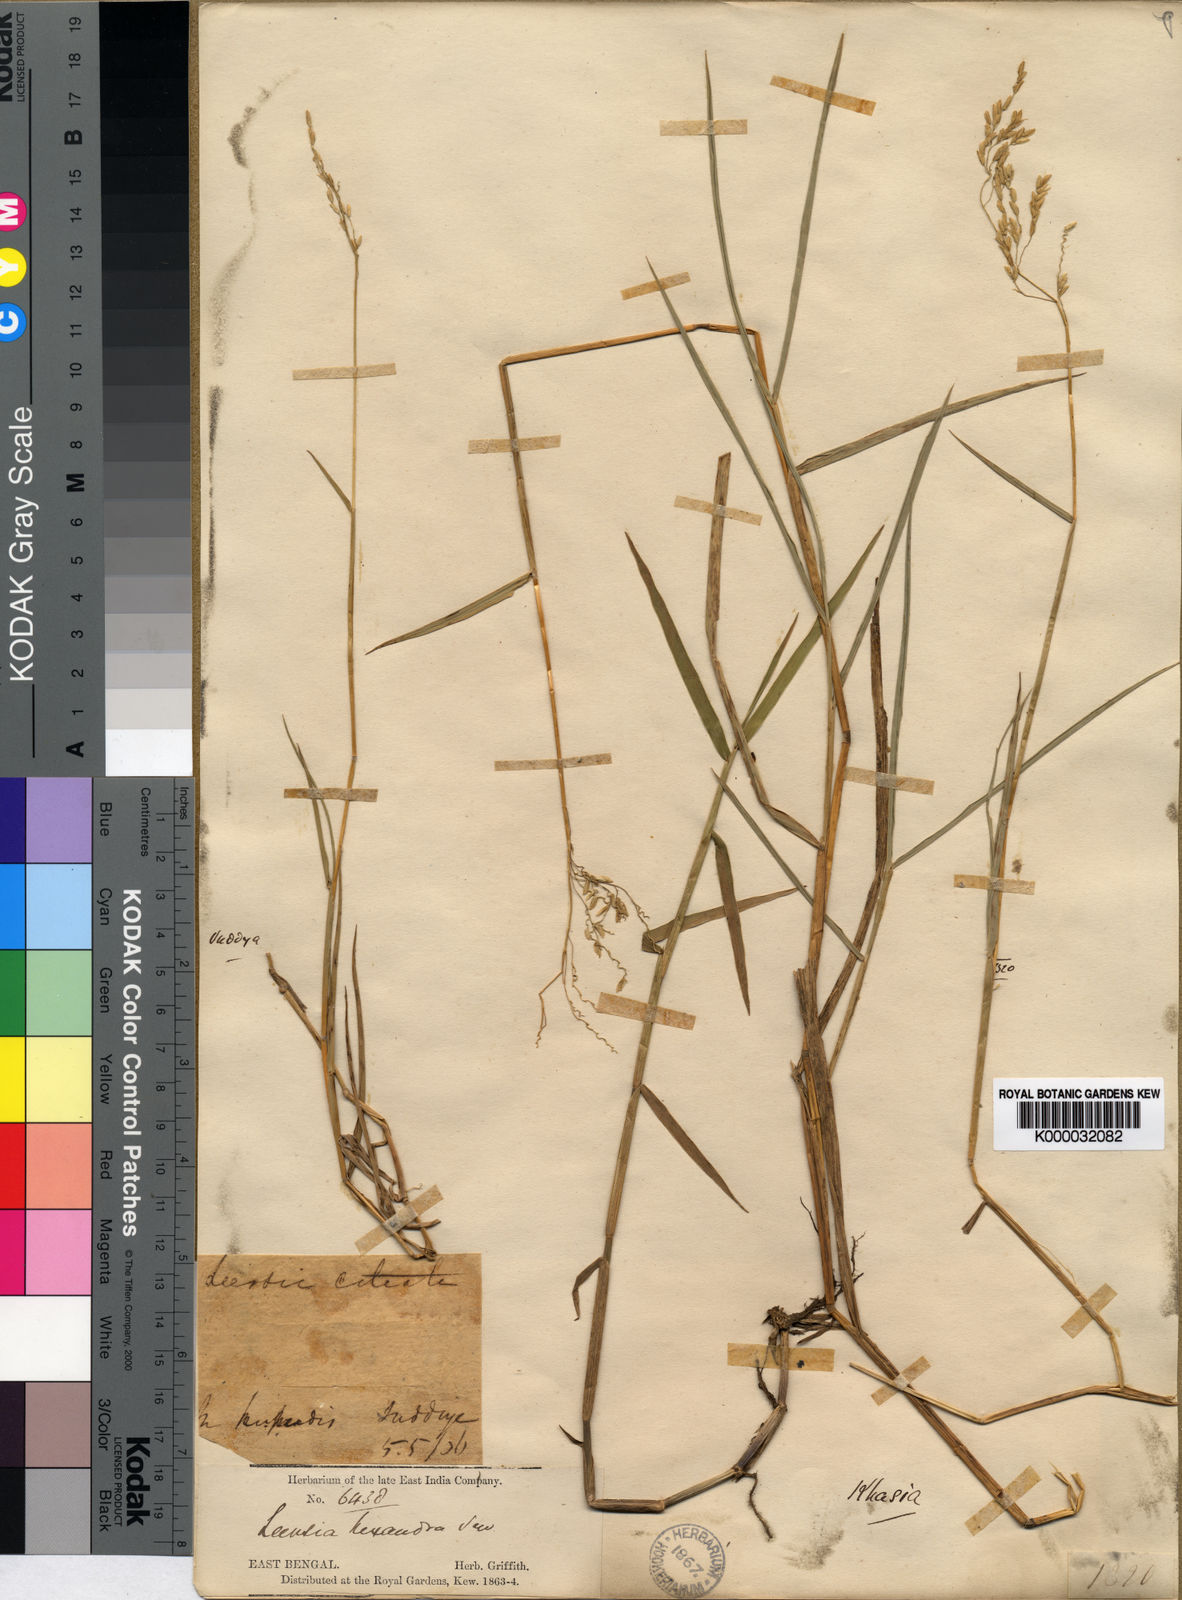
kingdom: Plantae
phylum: Tracheophyta
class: Liliopsida
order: Poales
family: Poaceae
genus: Leersia
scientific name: Leersia hexandra
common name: Southern cut grass
